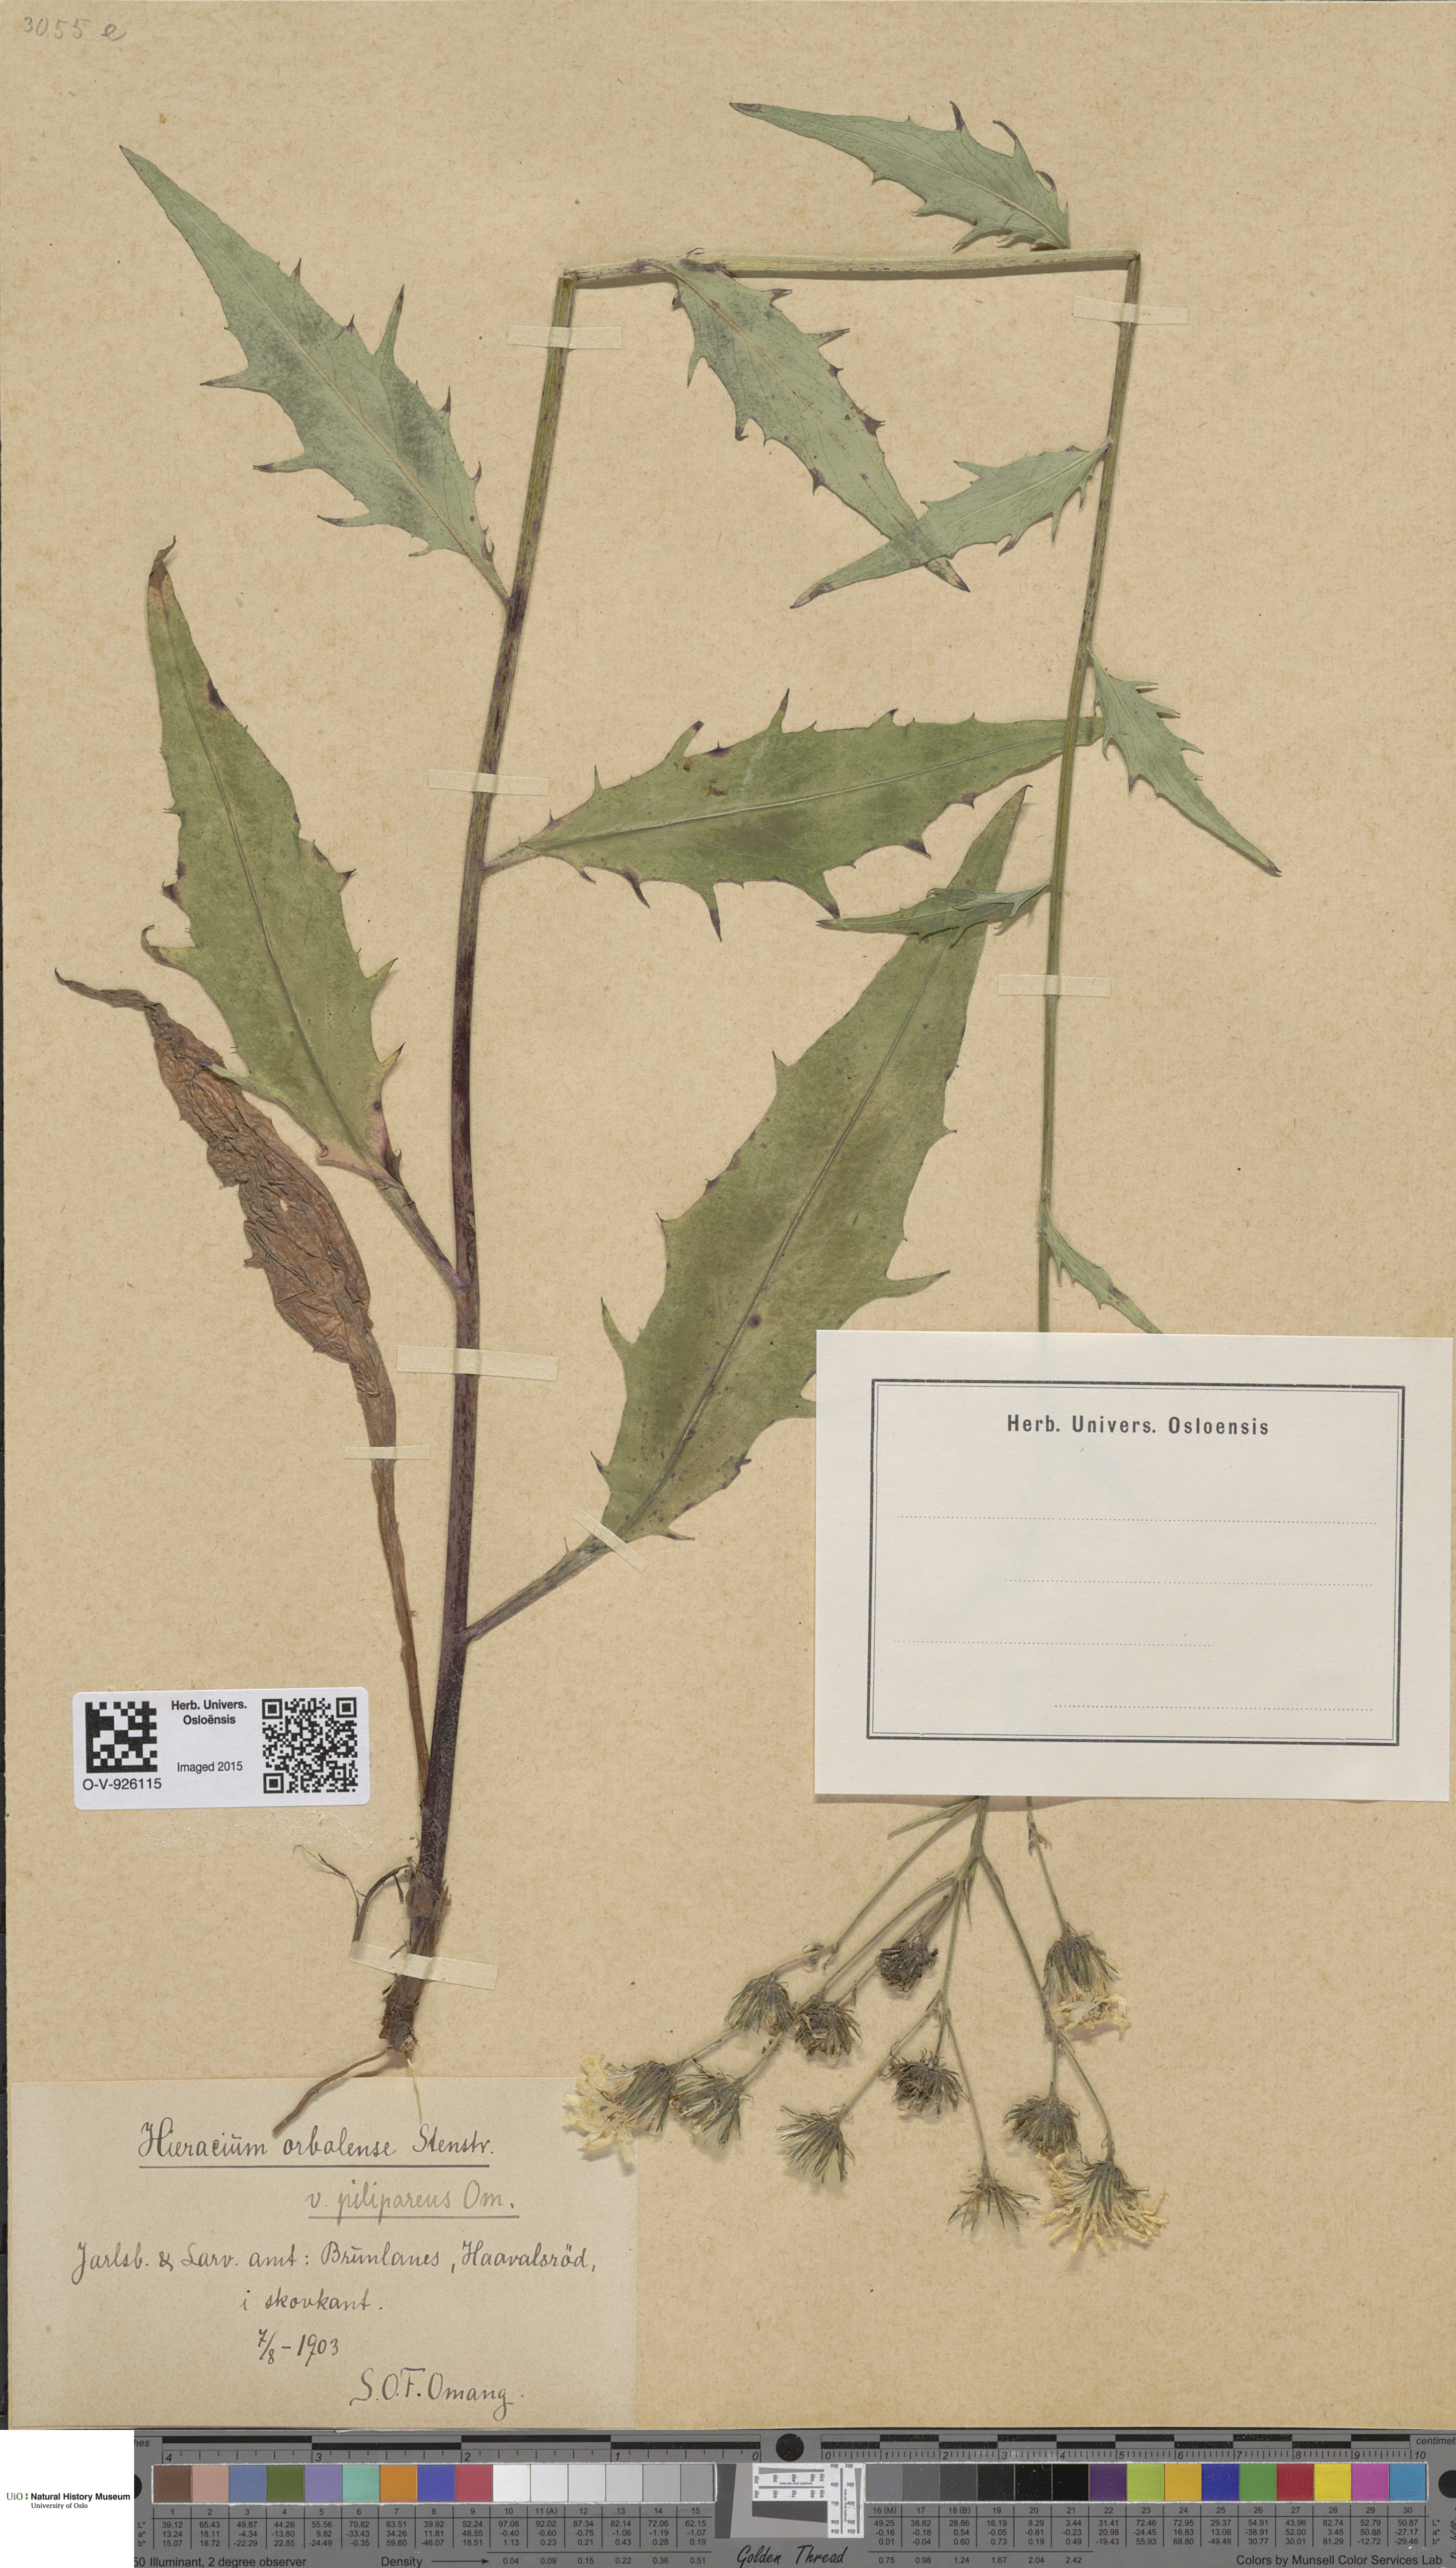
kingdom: Plantae
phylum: Tracheophyta
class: Magnoliopsida
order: Asterales
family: Asteraceae
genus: Hieracium
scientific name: Hieracium orbolense
